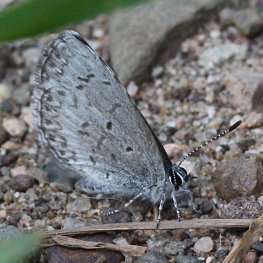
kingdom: Animalia
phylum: Arthropoda
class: Insecta
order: Lepidoptera
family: Lycaenidae
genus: Cyaniris
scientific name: Cyaniris neglecta
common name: Summer Azure
